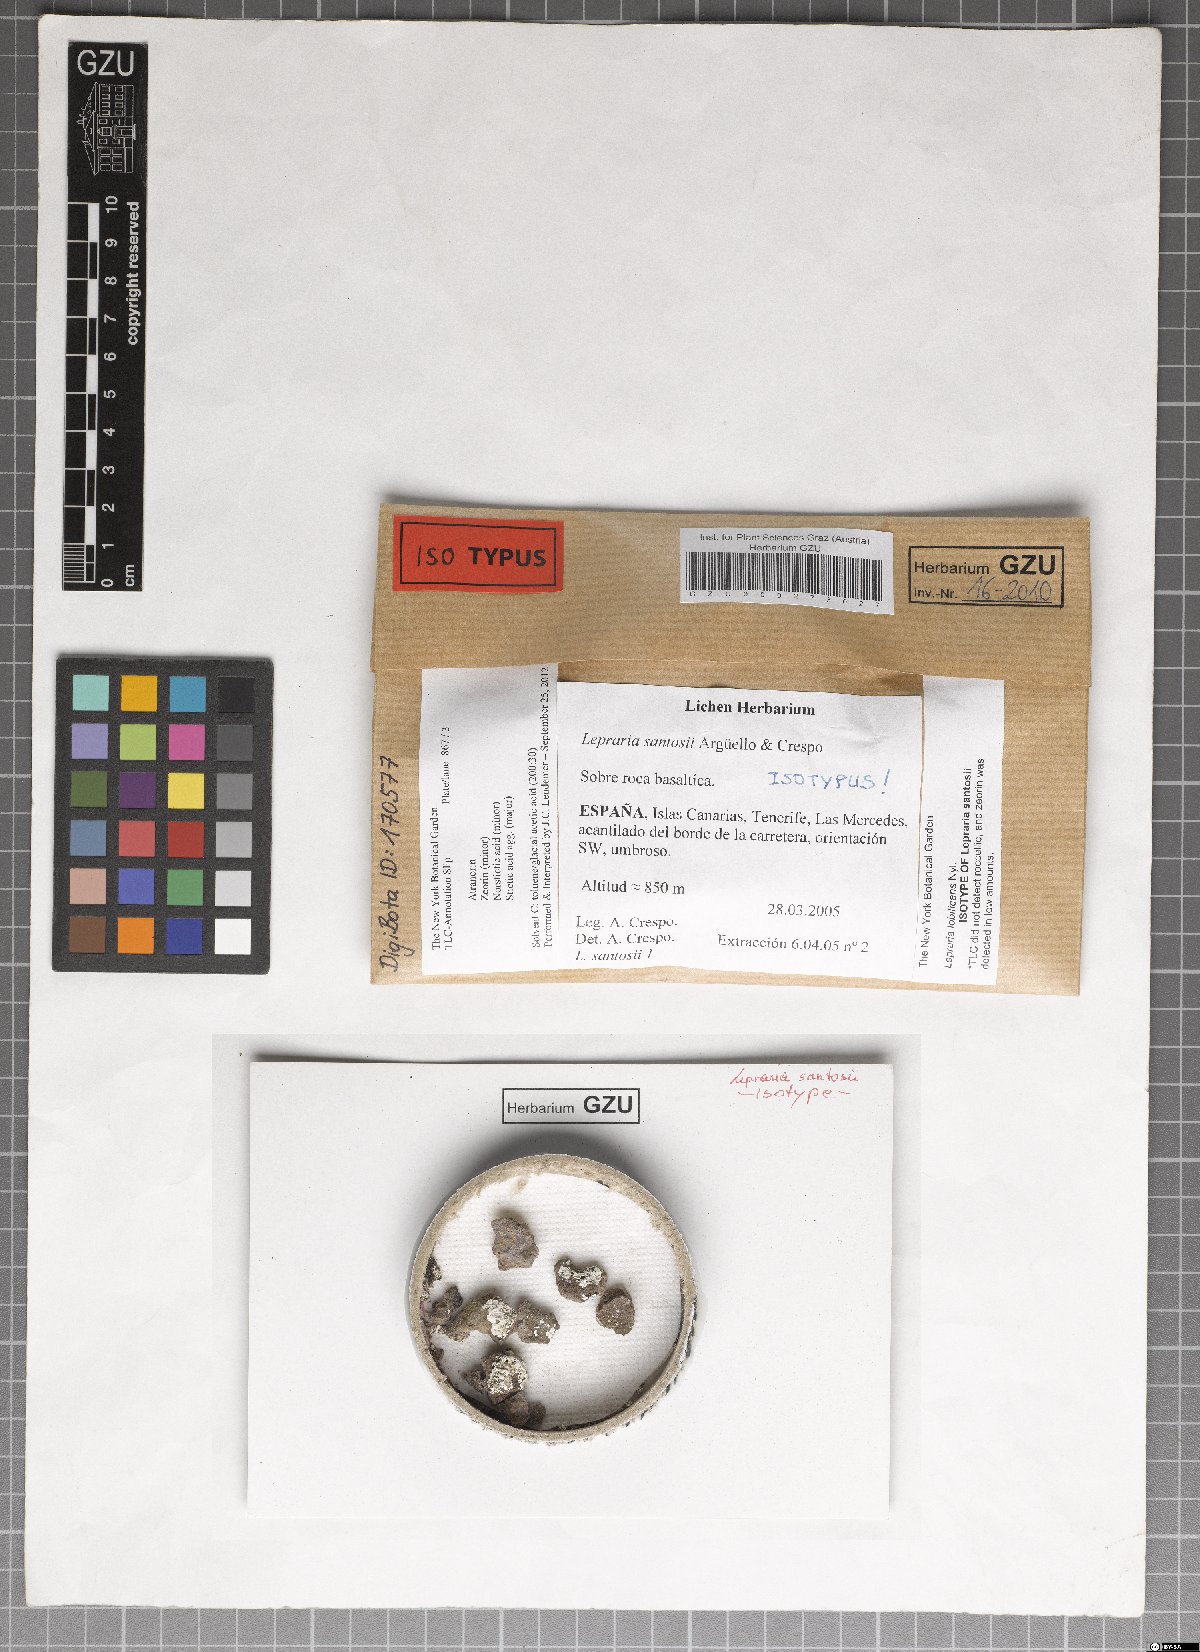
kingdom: Fungi
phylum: Ascomycota
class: Lecanoromycetes
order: Lecanorales
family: Stereocaulaceae
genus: Lepraria
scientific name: Lepraria santosii
